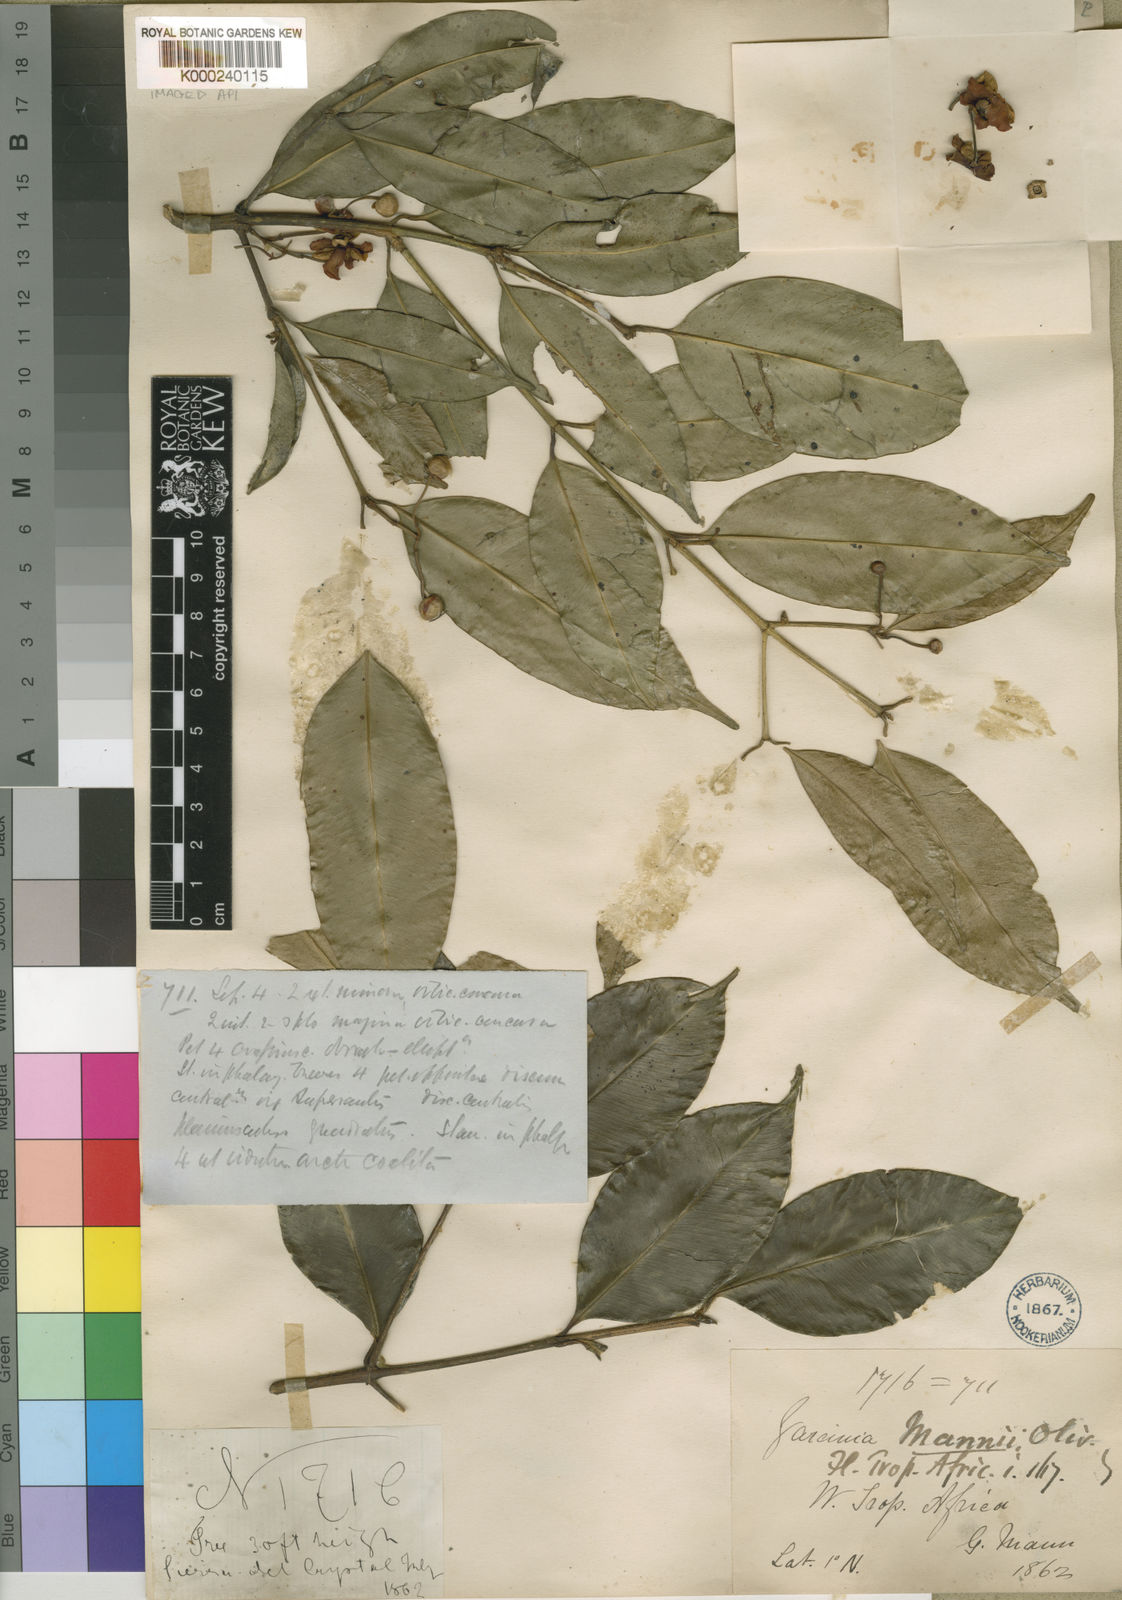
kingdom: Plantae
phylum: Tracheophyta
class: Magnoliopsida
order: Malpighiales
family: Clusiaceae
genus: Garcinia
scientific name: Garcinia mannii
